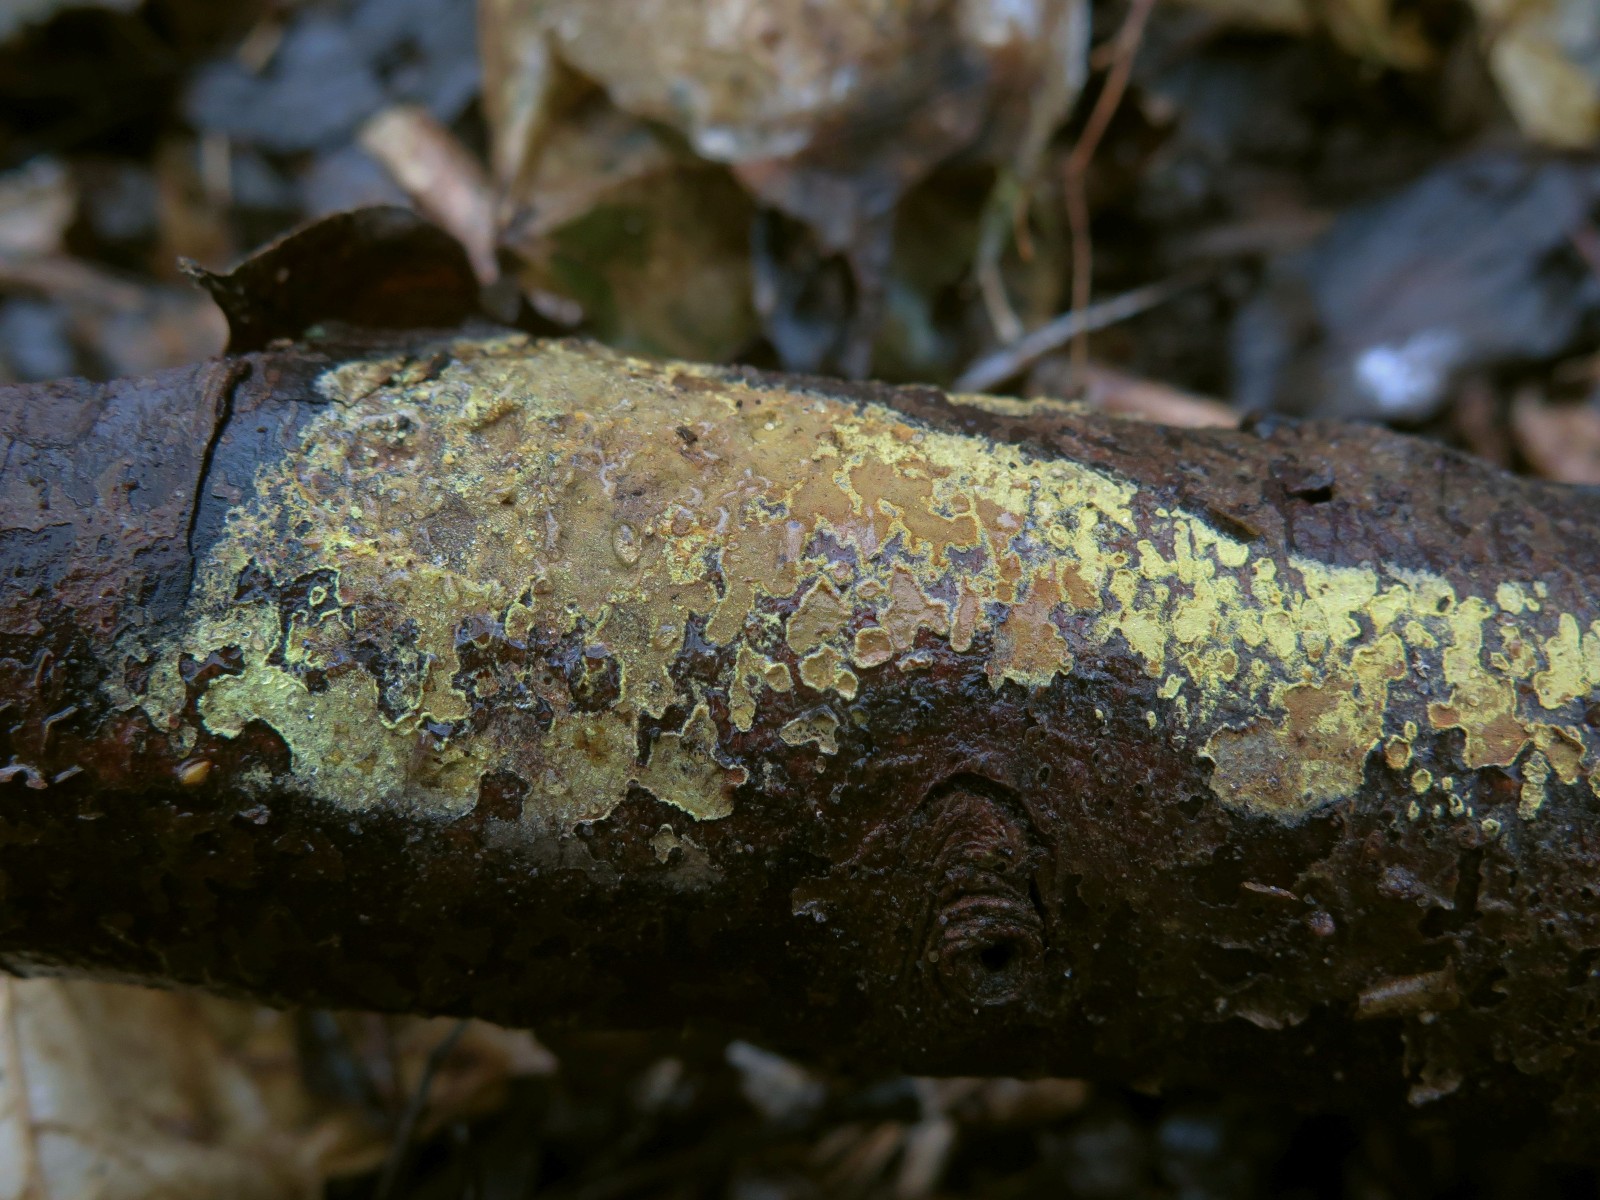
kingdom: Fungi
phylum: Ascomycota
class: Sordariomycetes
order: Xylariales
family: Hypoxylaceae
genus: Hypoxylon
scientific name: Hypoxylon
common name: kulbær
